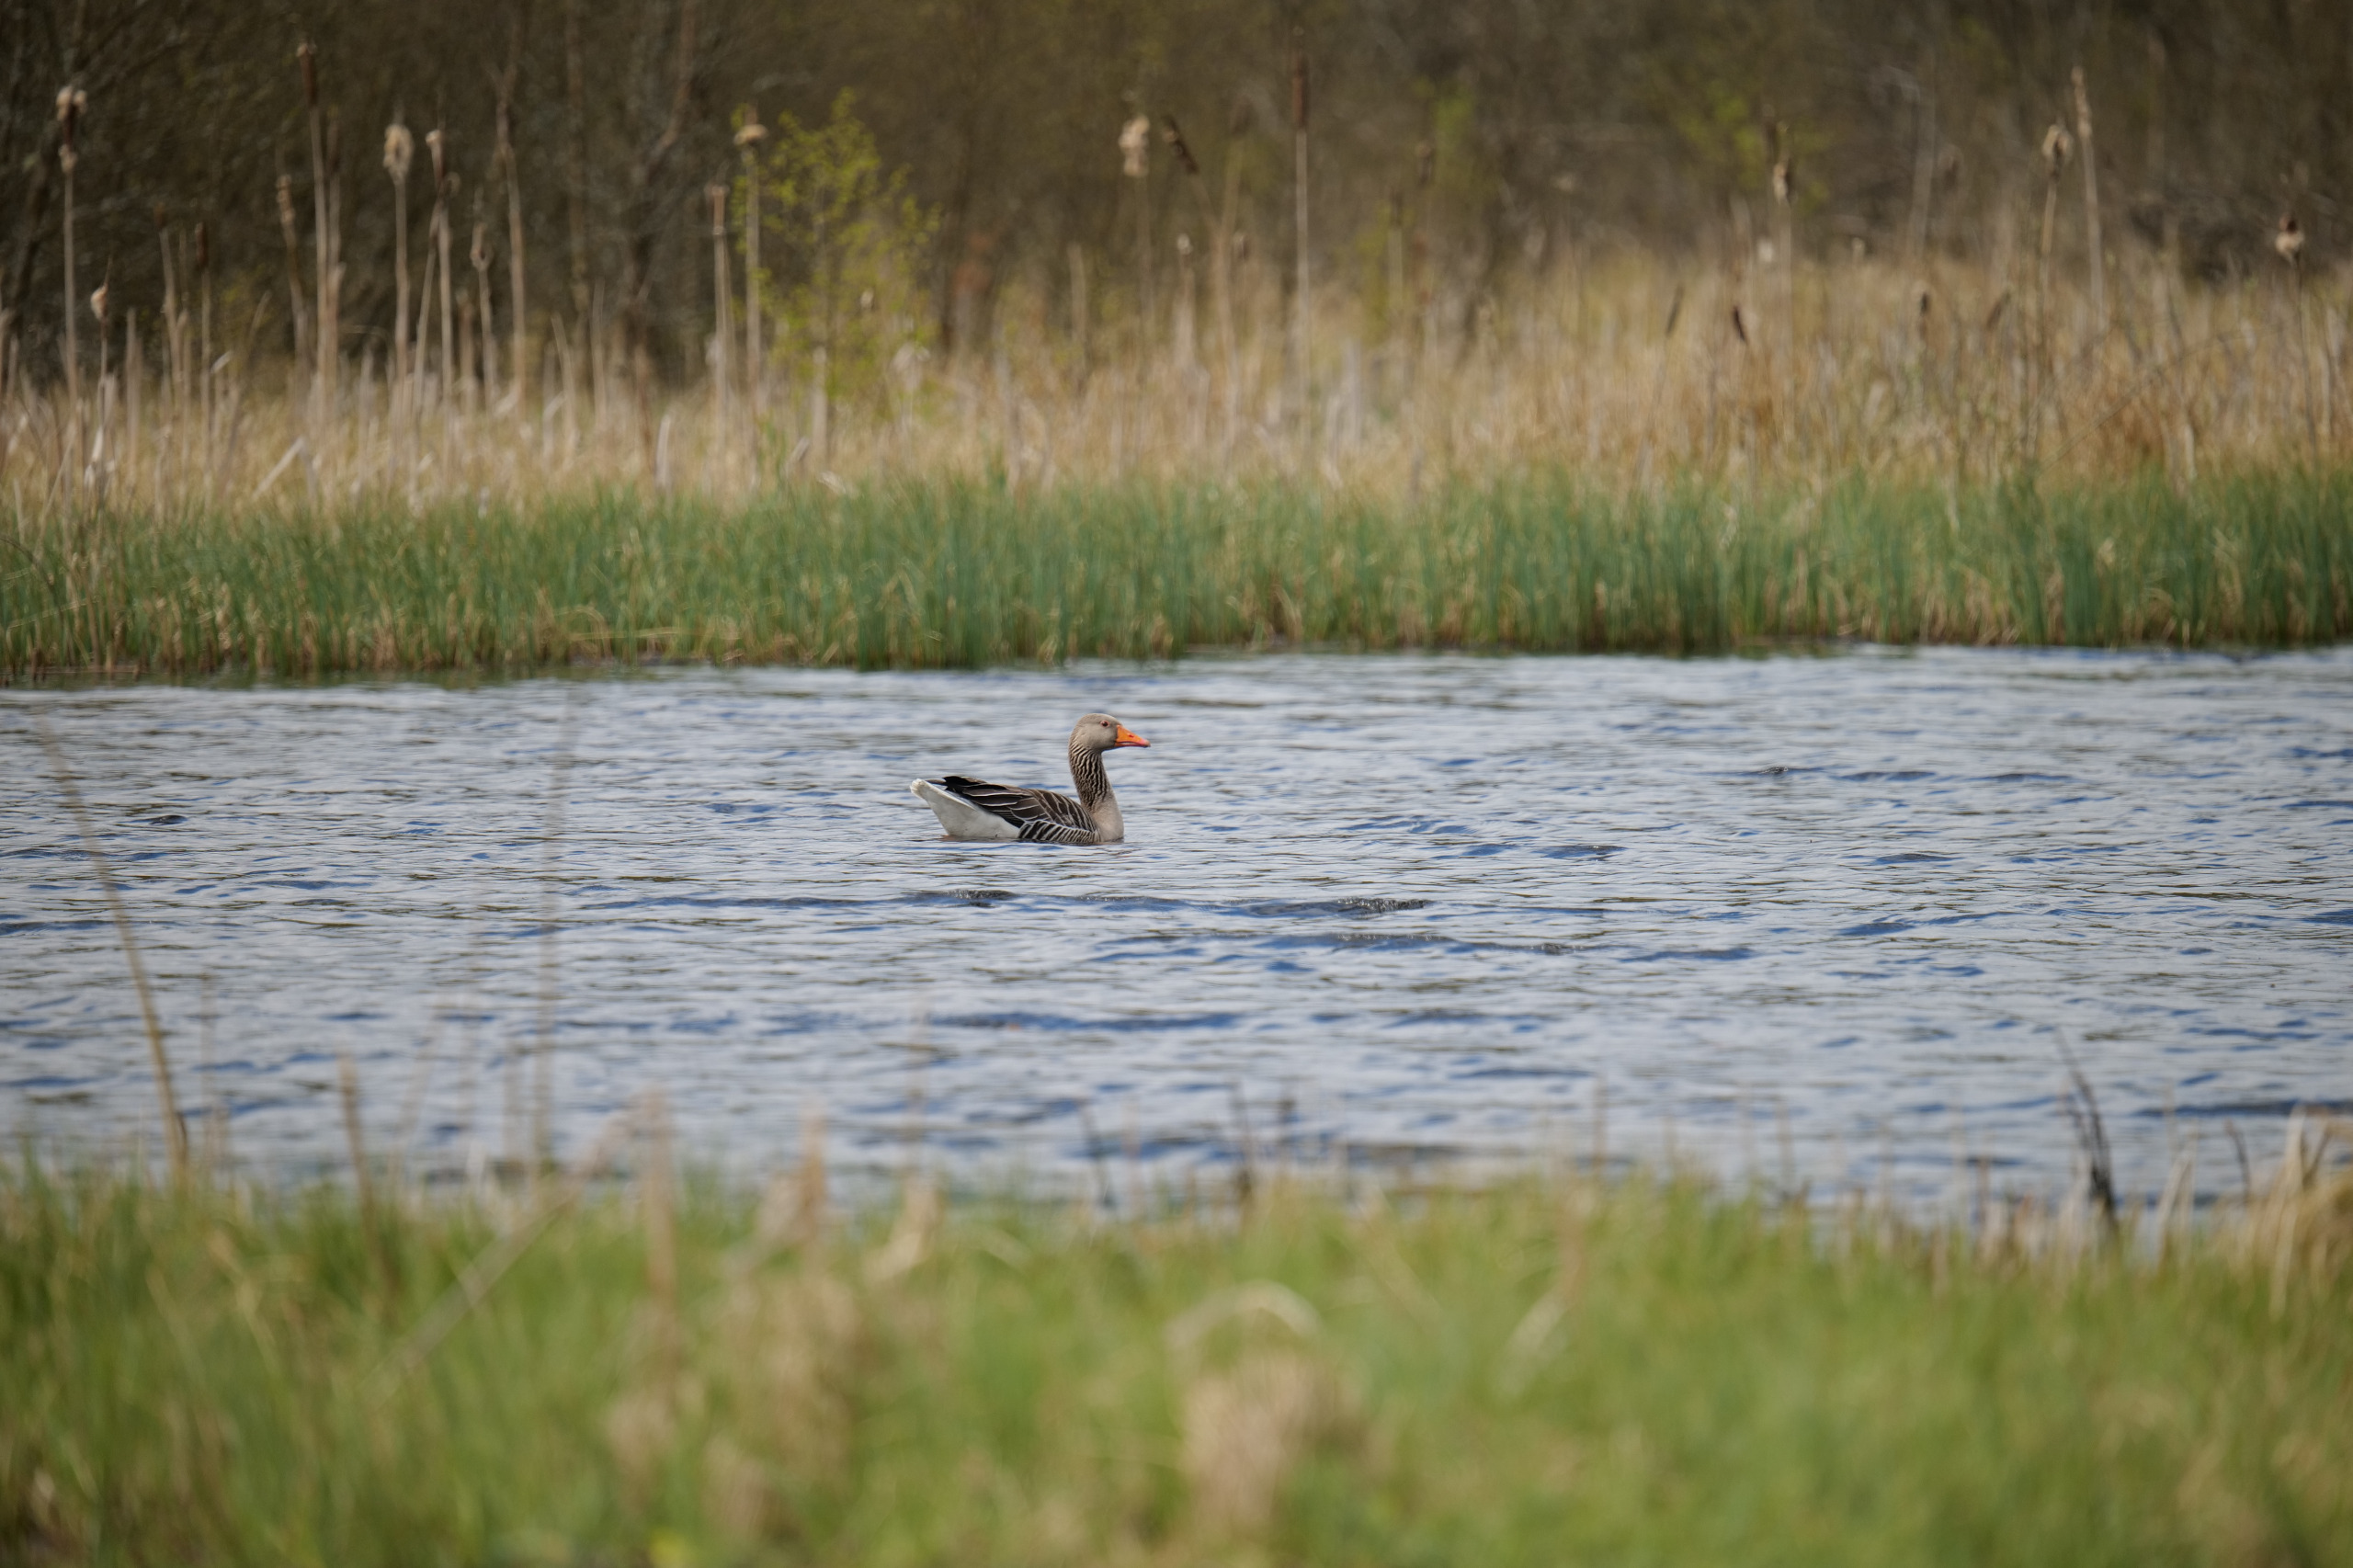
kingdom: Animalia
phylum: Chordata
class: Aves
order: Anseriformes
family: Anatidae
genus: Anser
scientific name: Anser anser
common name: Grågås
